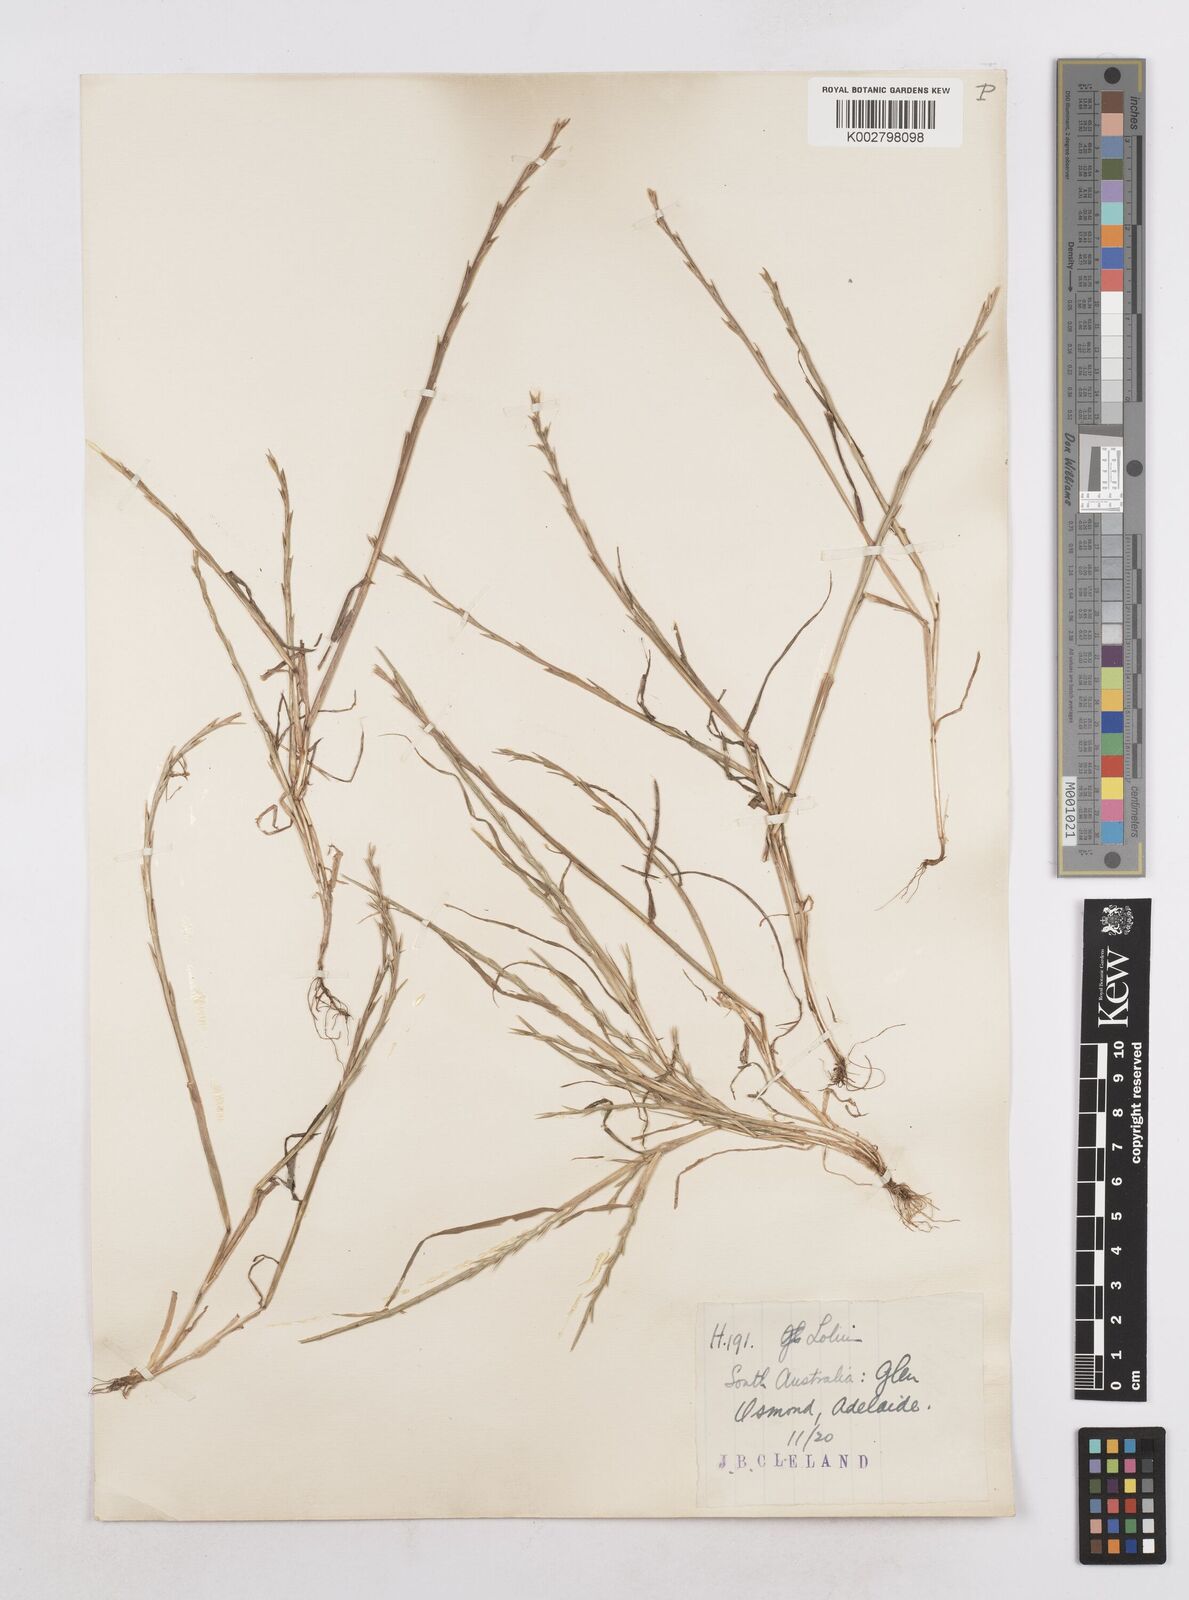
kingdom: Plantae
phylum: Tracheophyta
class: Liliopsida
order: Poales
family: Poaceae
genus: Lolium
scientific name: Lolium
